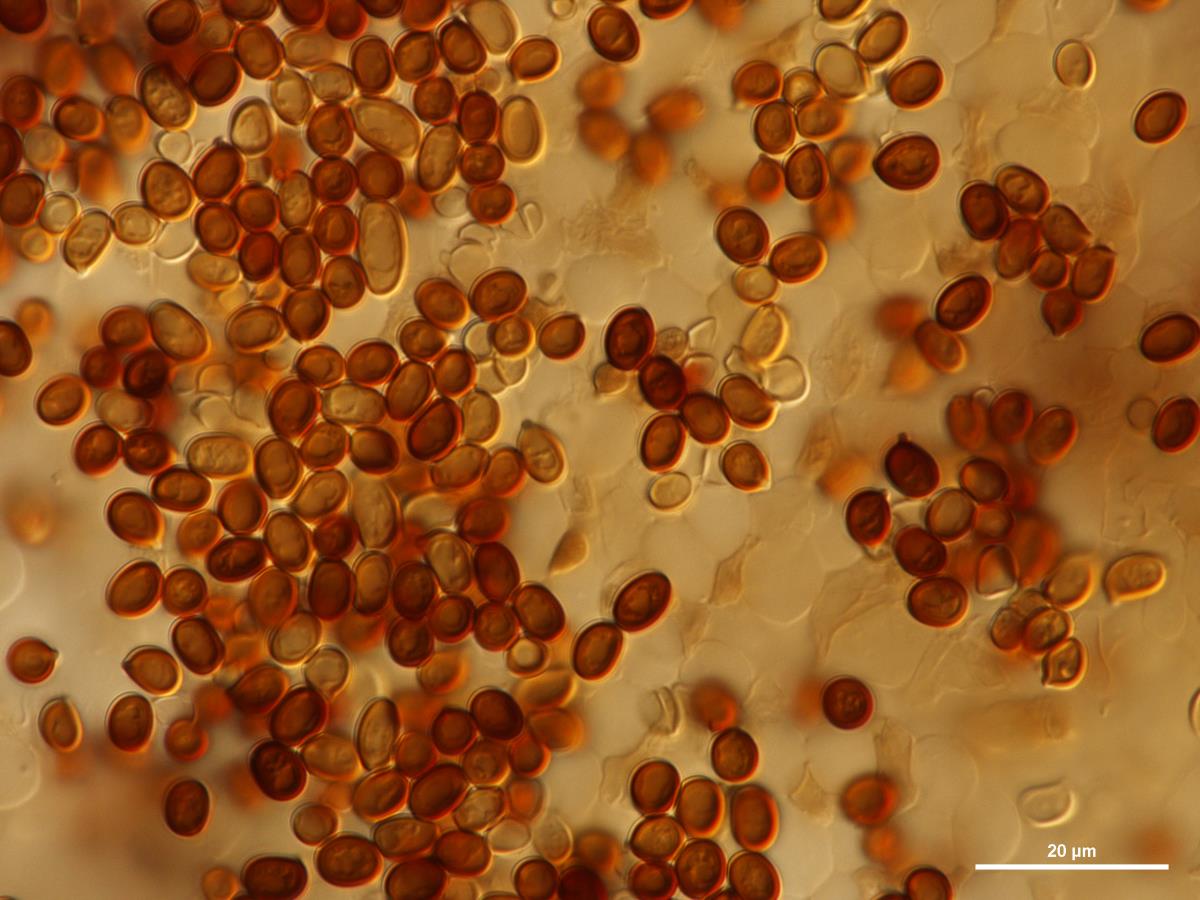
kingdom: Fungi
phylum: Basidiomycota
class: Agaricomycetes
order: Agaricales
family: Agaricaceae
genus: Agaricus
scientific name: Agaricus
